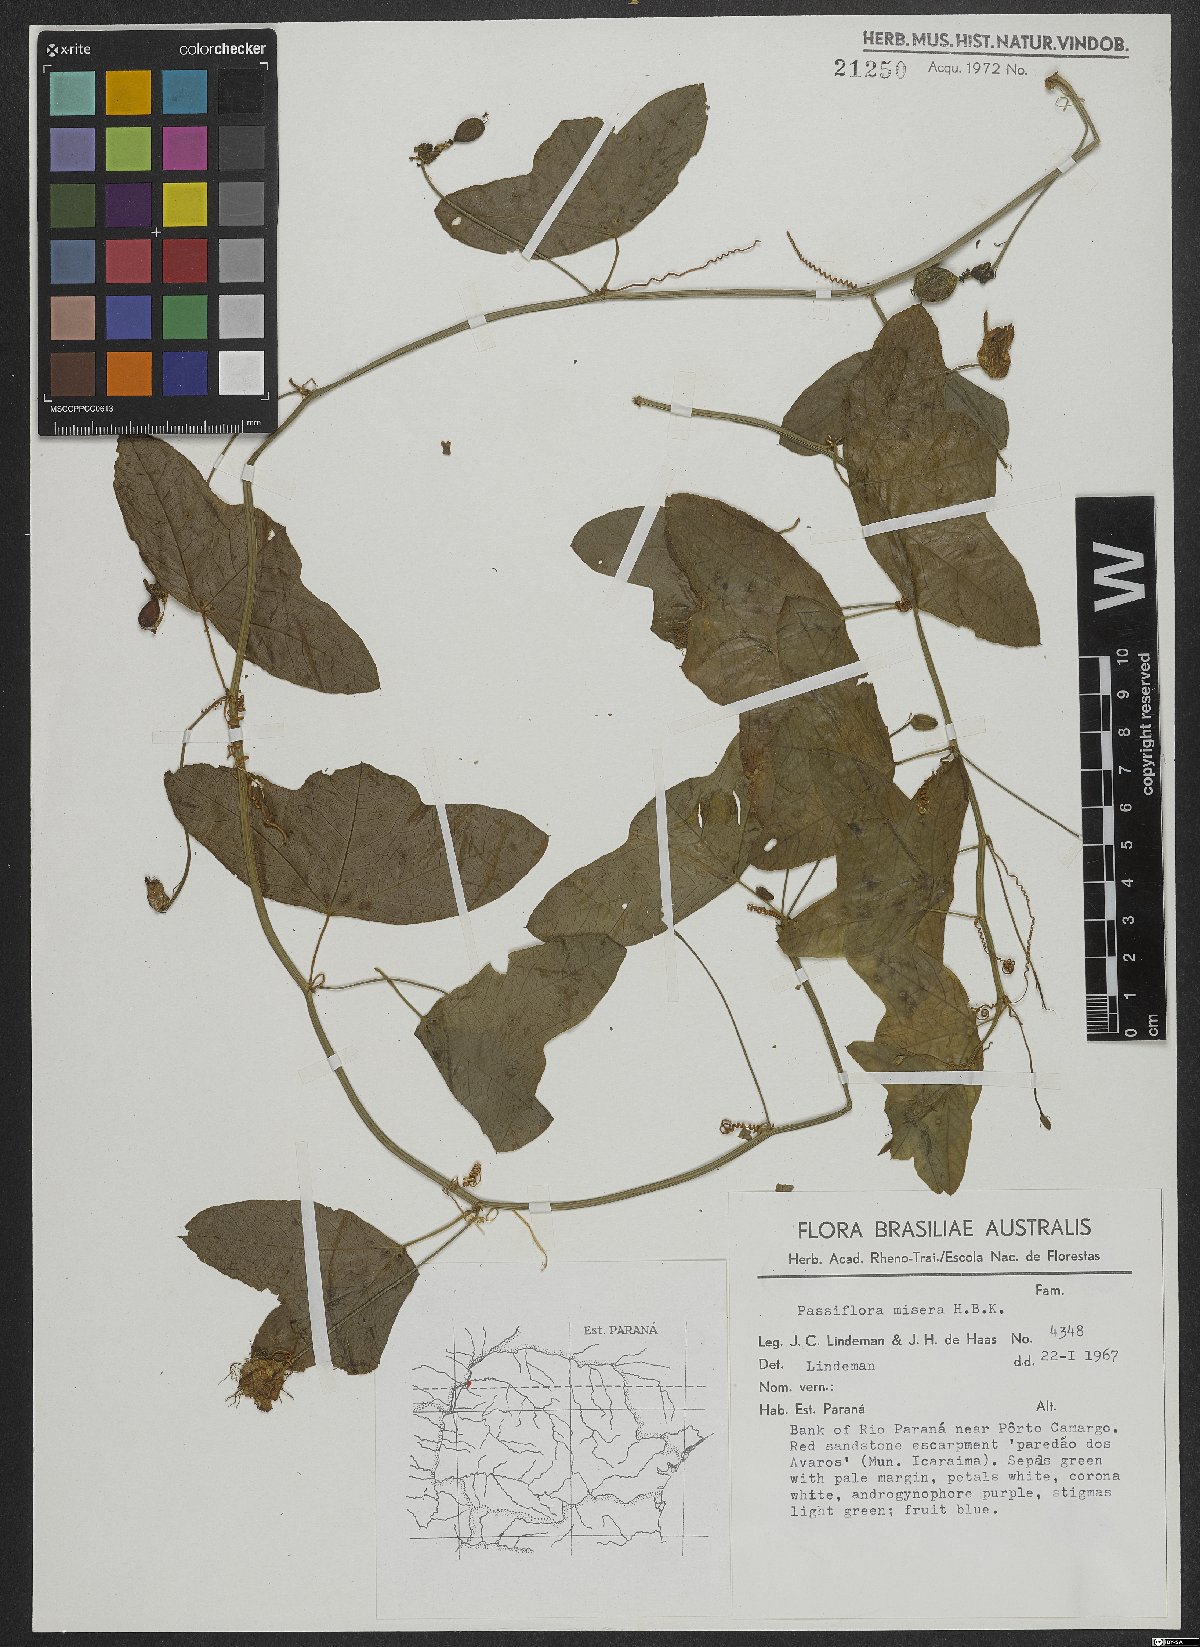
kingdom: Plantae
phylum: Tracheophyta
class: Magnoliopsida
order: Malpighiales
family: Passifloraceae
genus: Passiflora
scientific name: Passiflora misera
